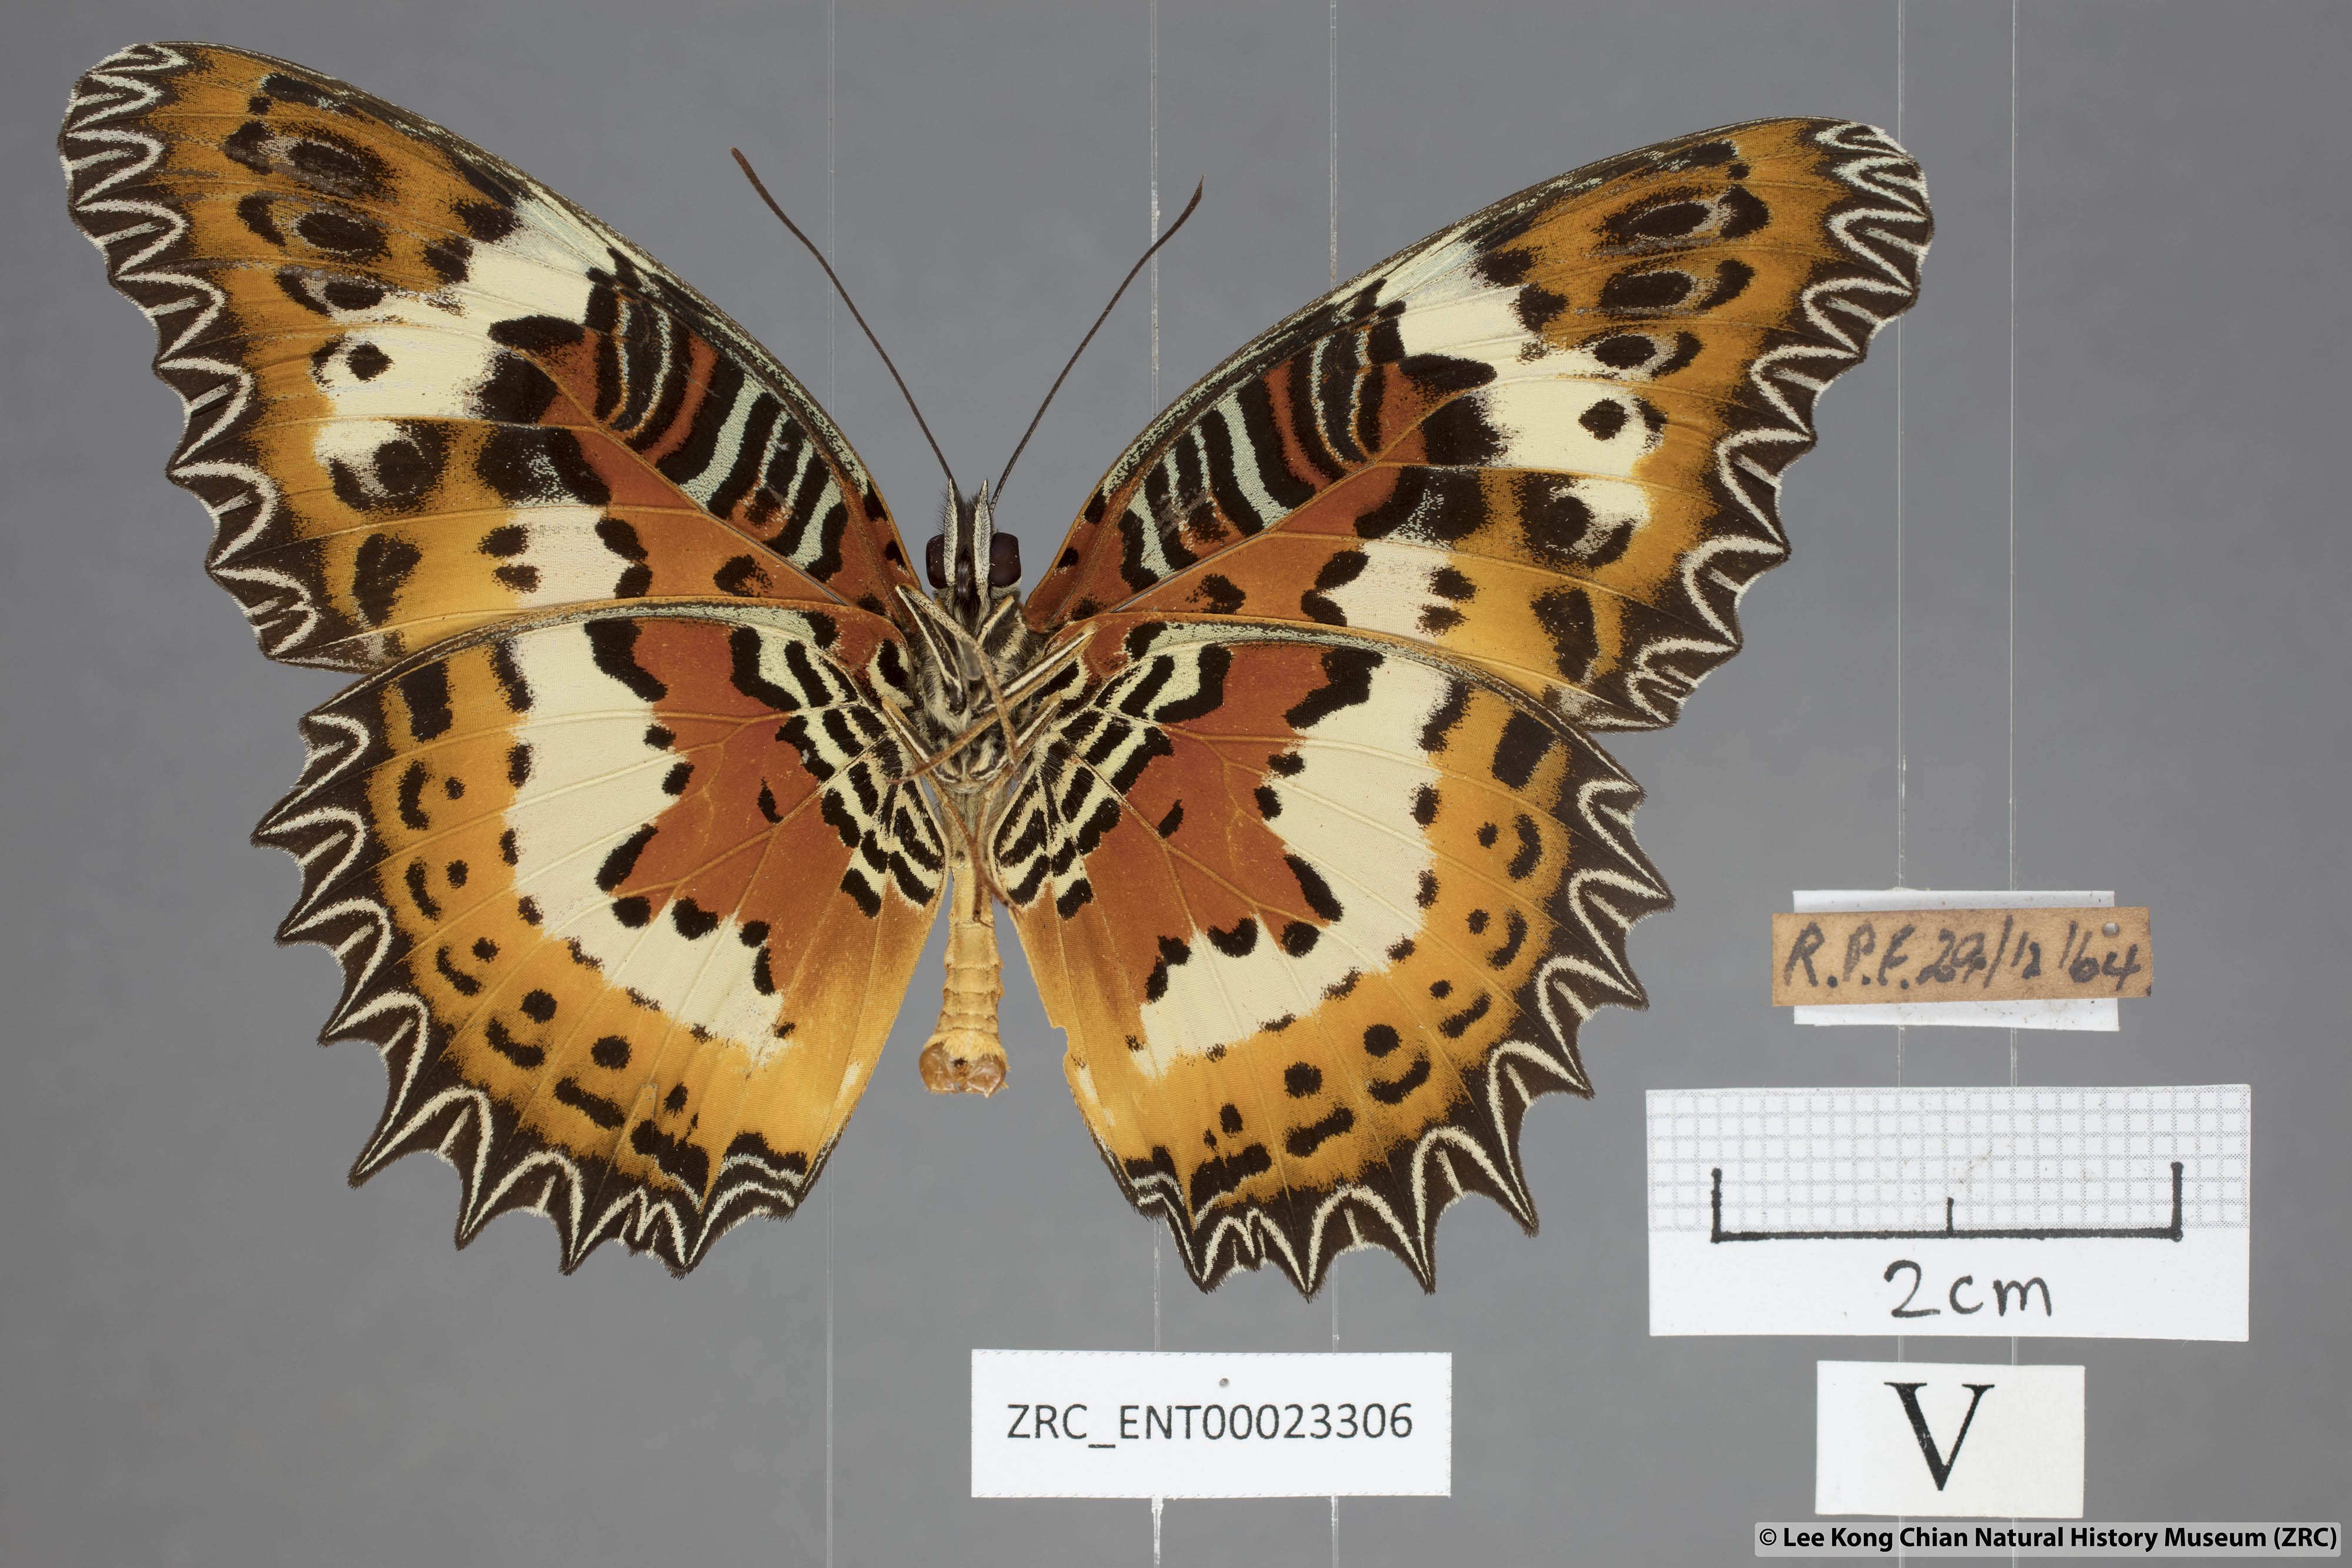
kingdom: Animalia
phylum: Arthropoda
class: Insecta
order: Lepidoptera
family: Nymphalidae
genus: Cethosia
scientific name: Cethosia hypsea
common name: Malayan lacewing butterfly
